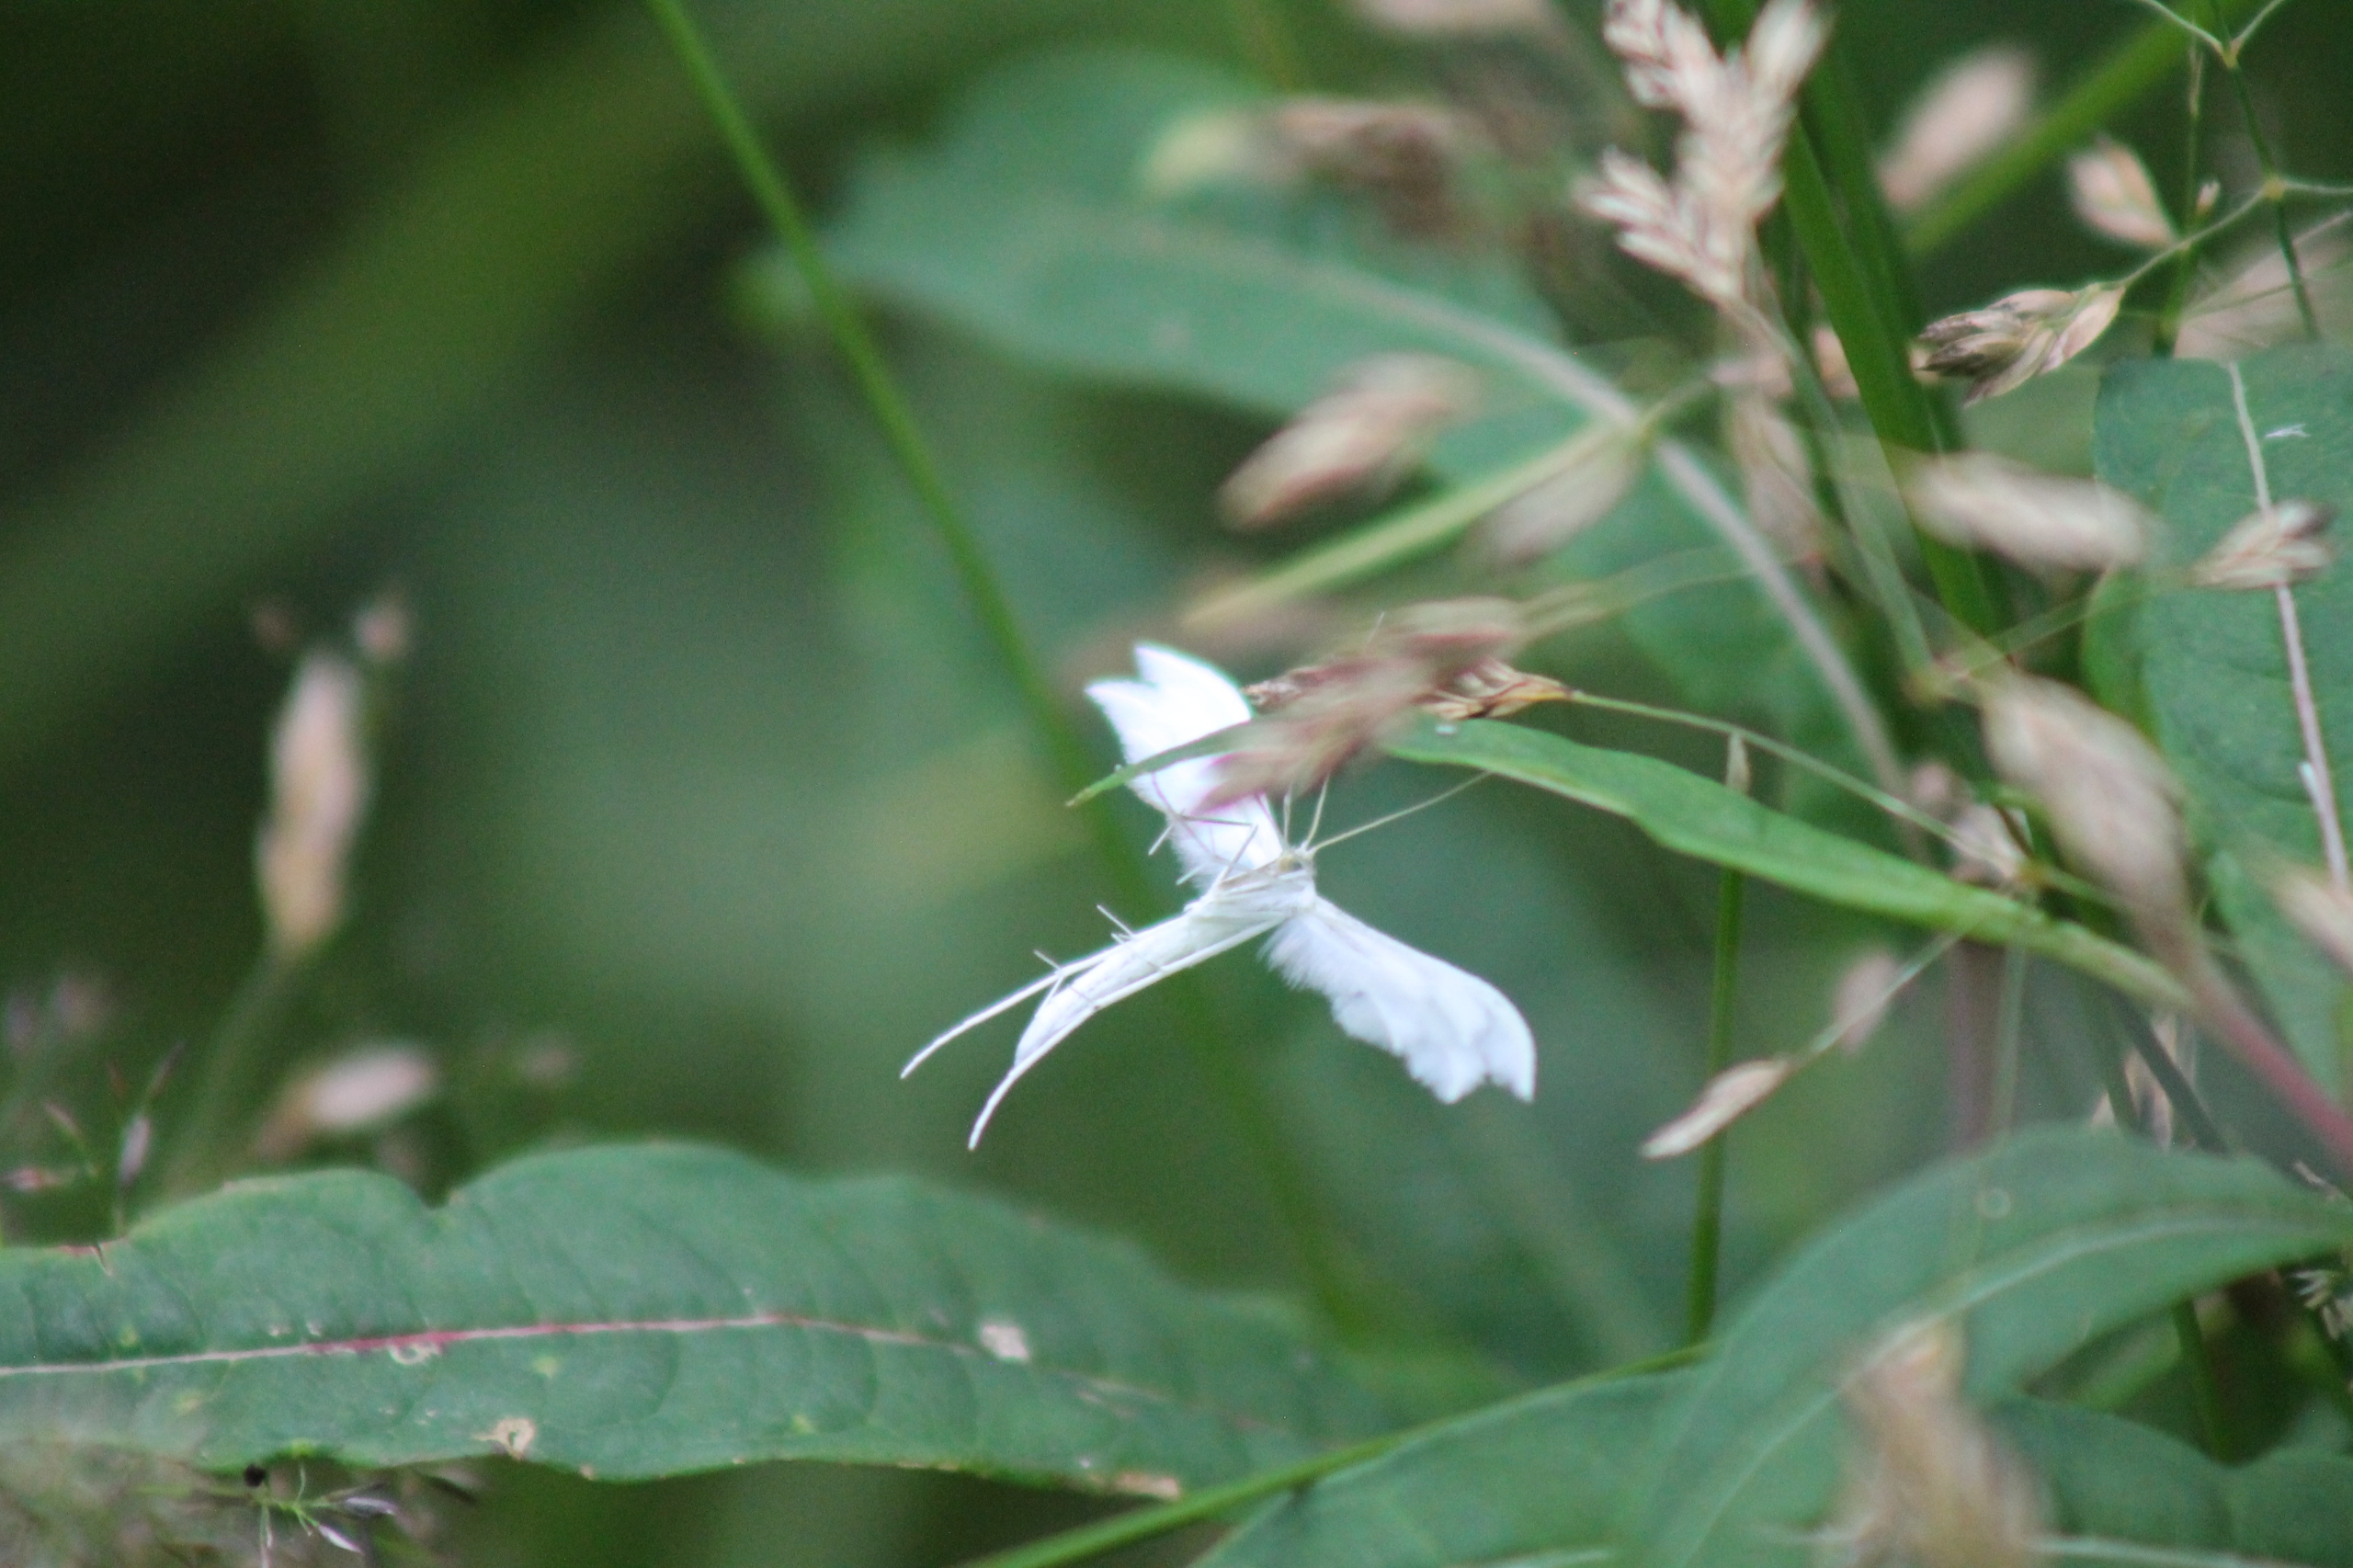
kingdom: Animalia
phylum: Arthropoda
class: Insecta
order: Lepidoptera
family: Pterophoridae
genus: Pterophorus
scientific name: Pterophorus pentadactyla
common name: Hvidt fjermøl
